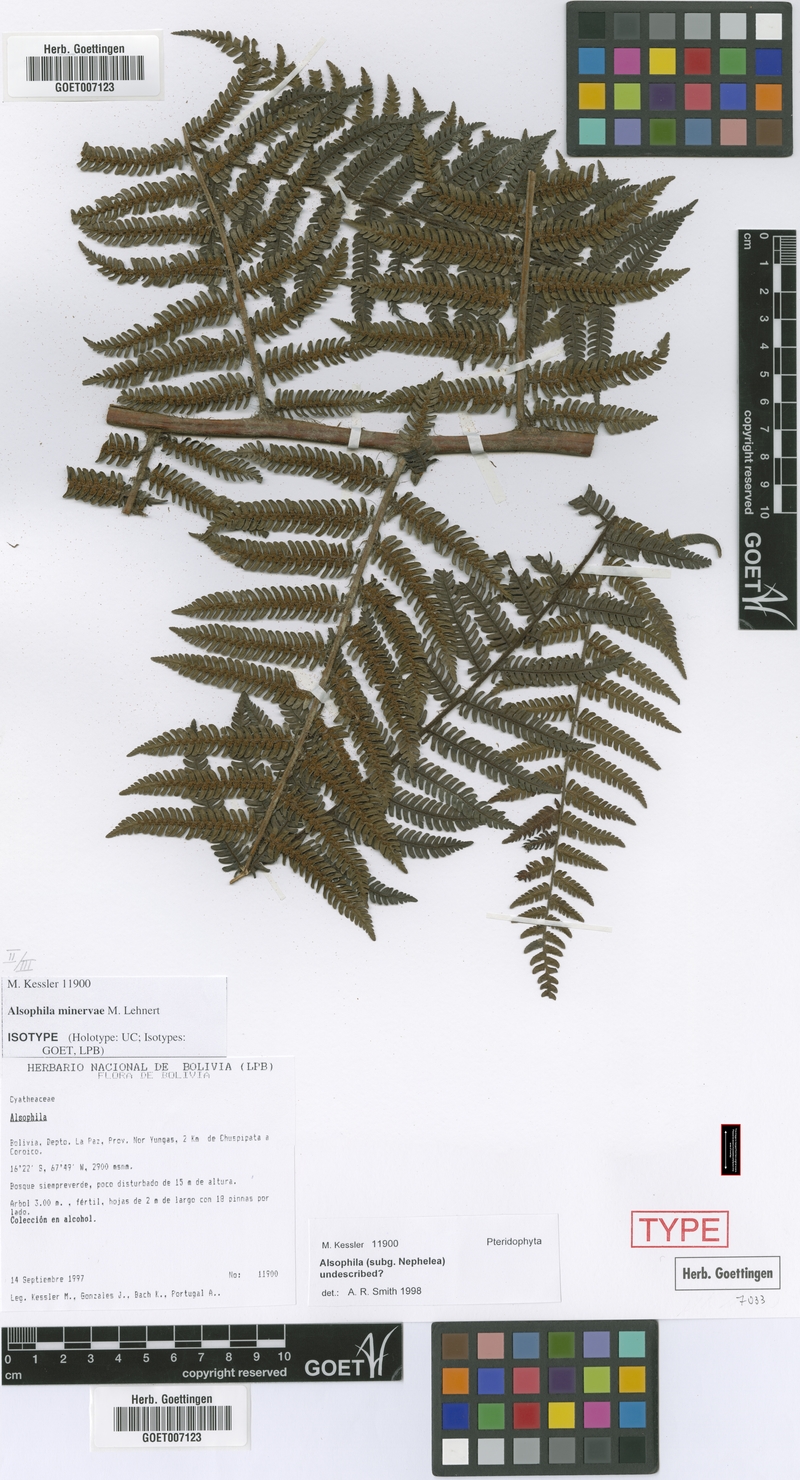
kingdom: Plantae
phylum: Tracheophyta
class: Polypodiopsida
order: Cyatheales
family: Cyatheaceae
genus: Alsophila
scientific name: Alsophila minervae
